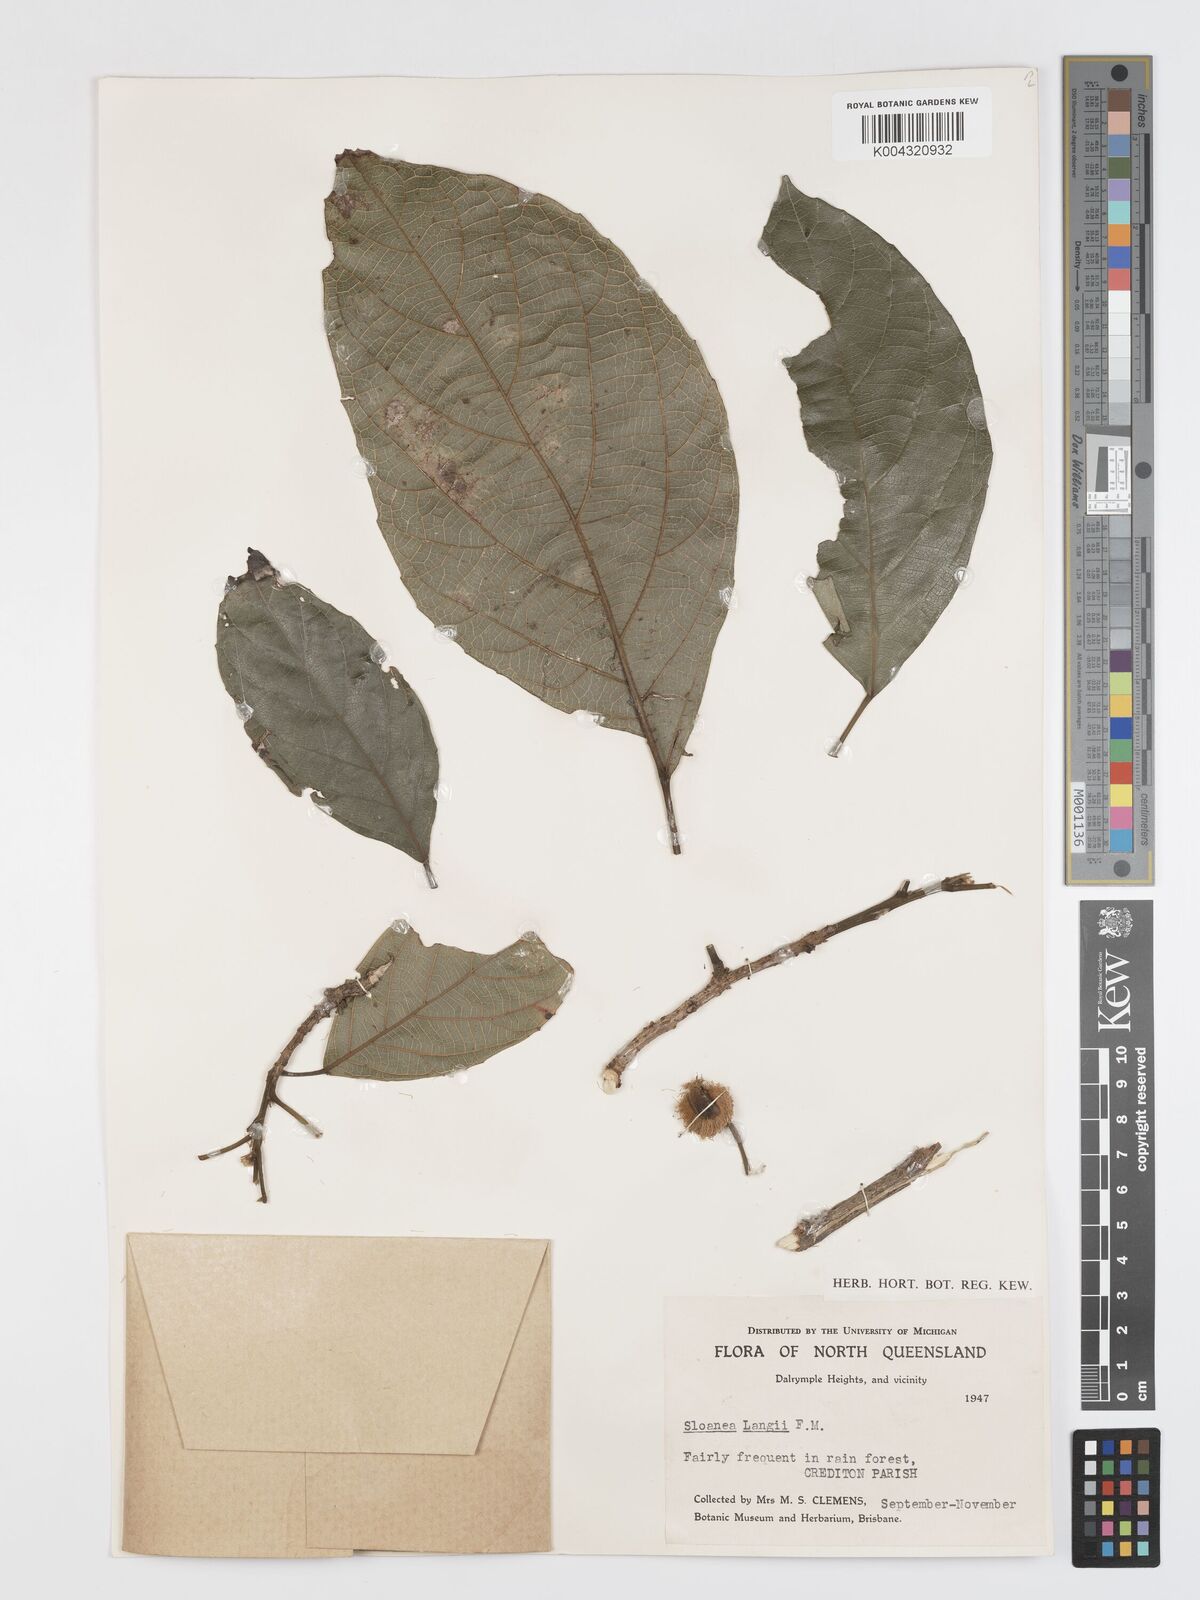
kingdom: Plantae
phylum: Tracheophyta
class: Magnoliopsida
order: Oxalidales
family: Elaeocarpaceae
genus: Sloanea
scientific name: Sloanea langii
